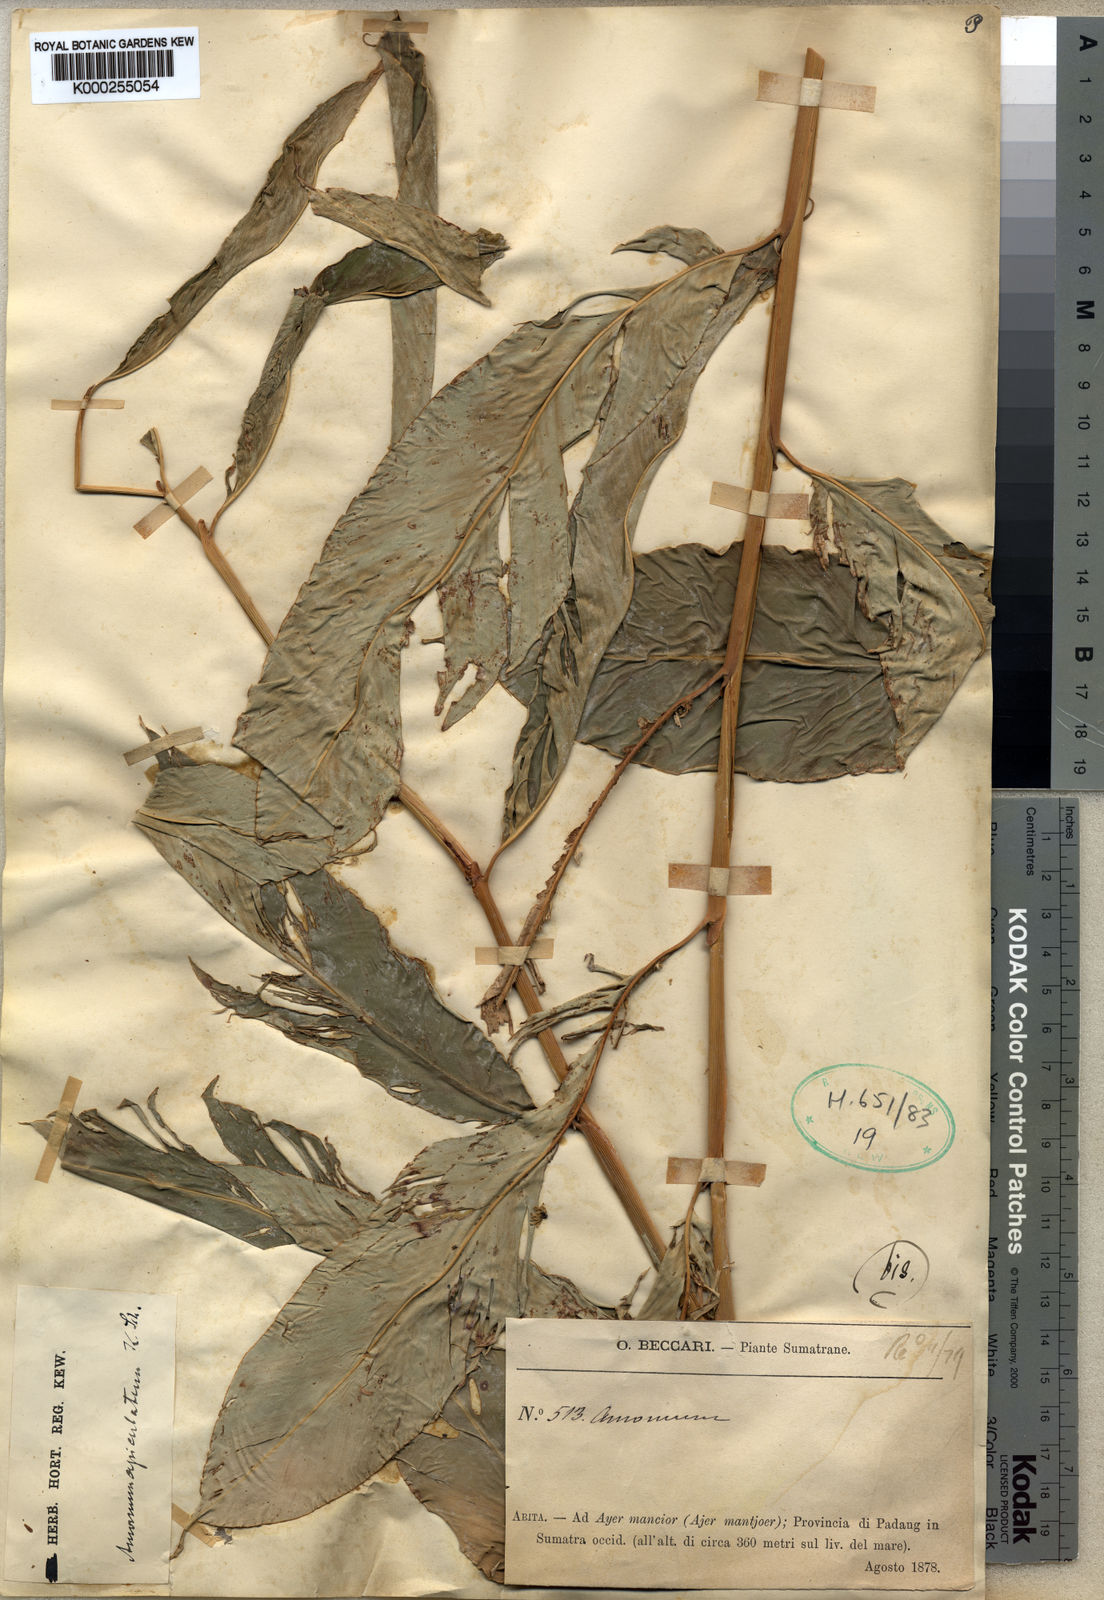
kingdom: Plantae
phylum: Tracheophyta
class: Liliopsida
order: Zingiberales
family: Zingiberaceae
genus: Amomum
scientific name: Amomum apiculatum
